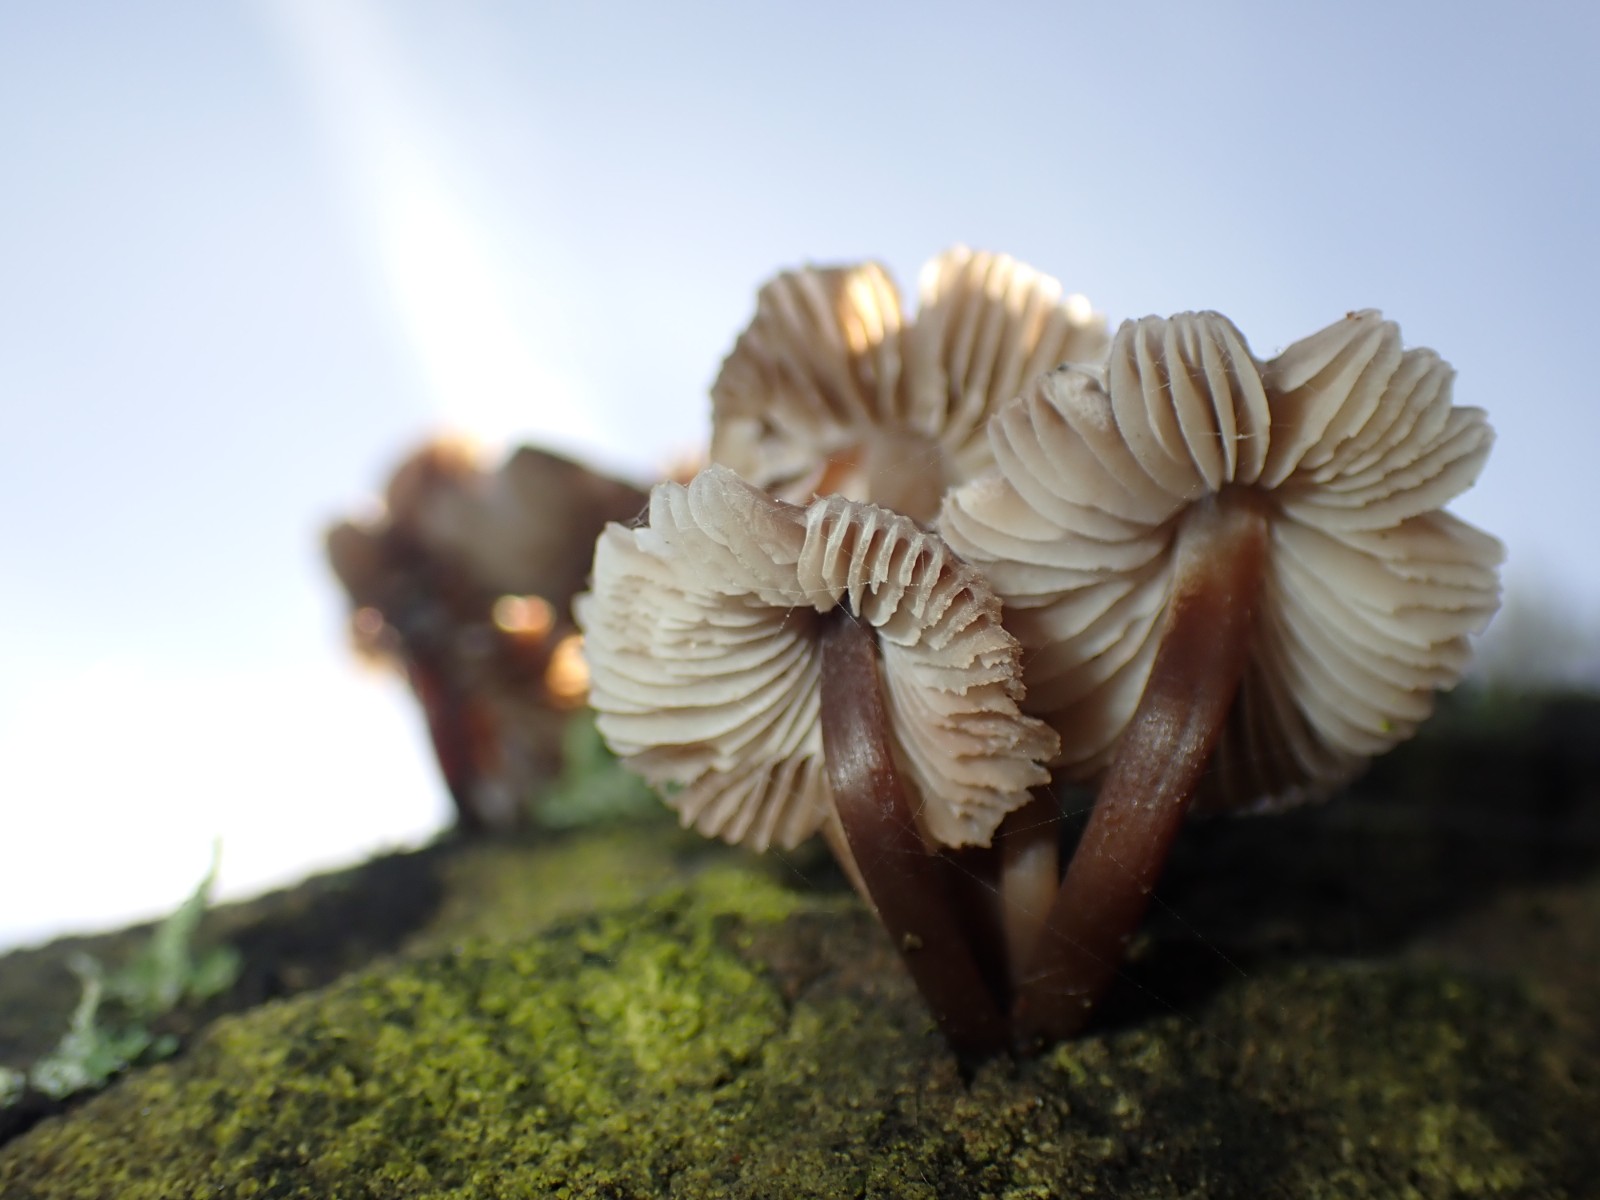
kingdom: Fungi
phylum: Basidiomycota
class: Agaricomycetes
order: Agaricales
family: Mycenaceae
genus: Mycena
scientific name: Mycena
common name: huesvamp
